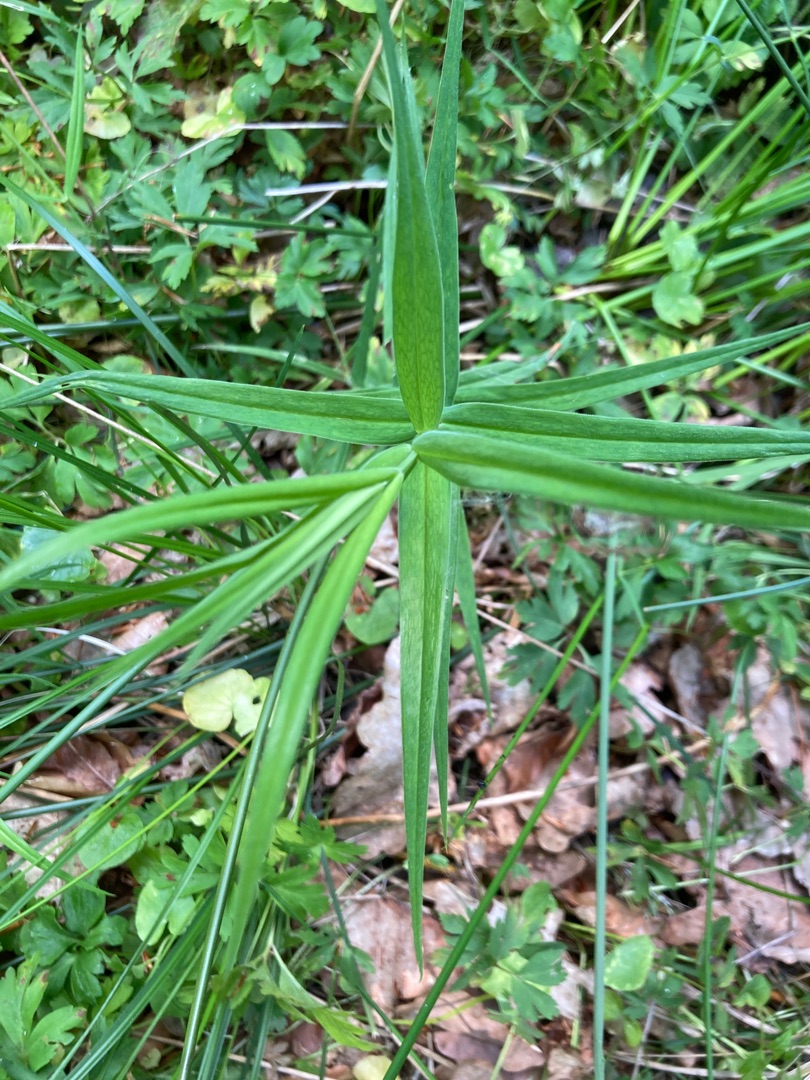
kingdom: Plantae
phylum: Tracheophyta
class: Magnoliopsida
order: Caryophyllales
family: Caryophyllaceae
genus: Rabelera
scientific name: Rabelera holostea
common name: Stor fladstjerne
